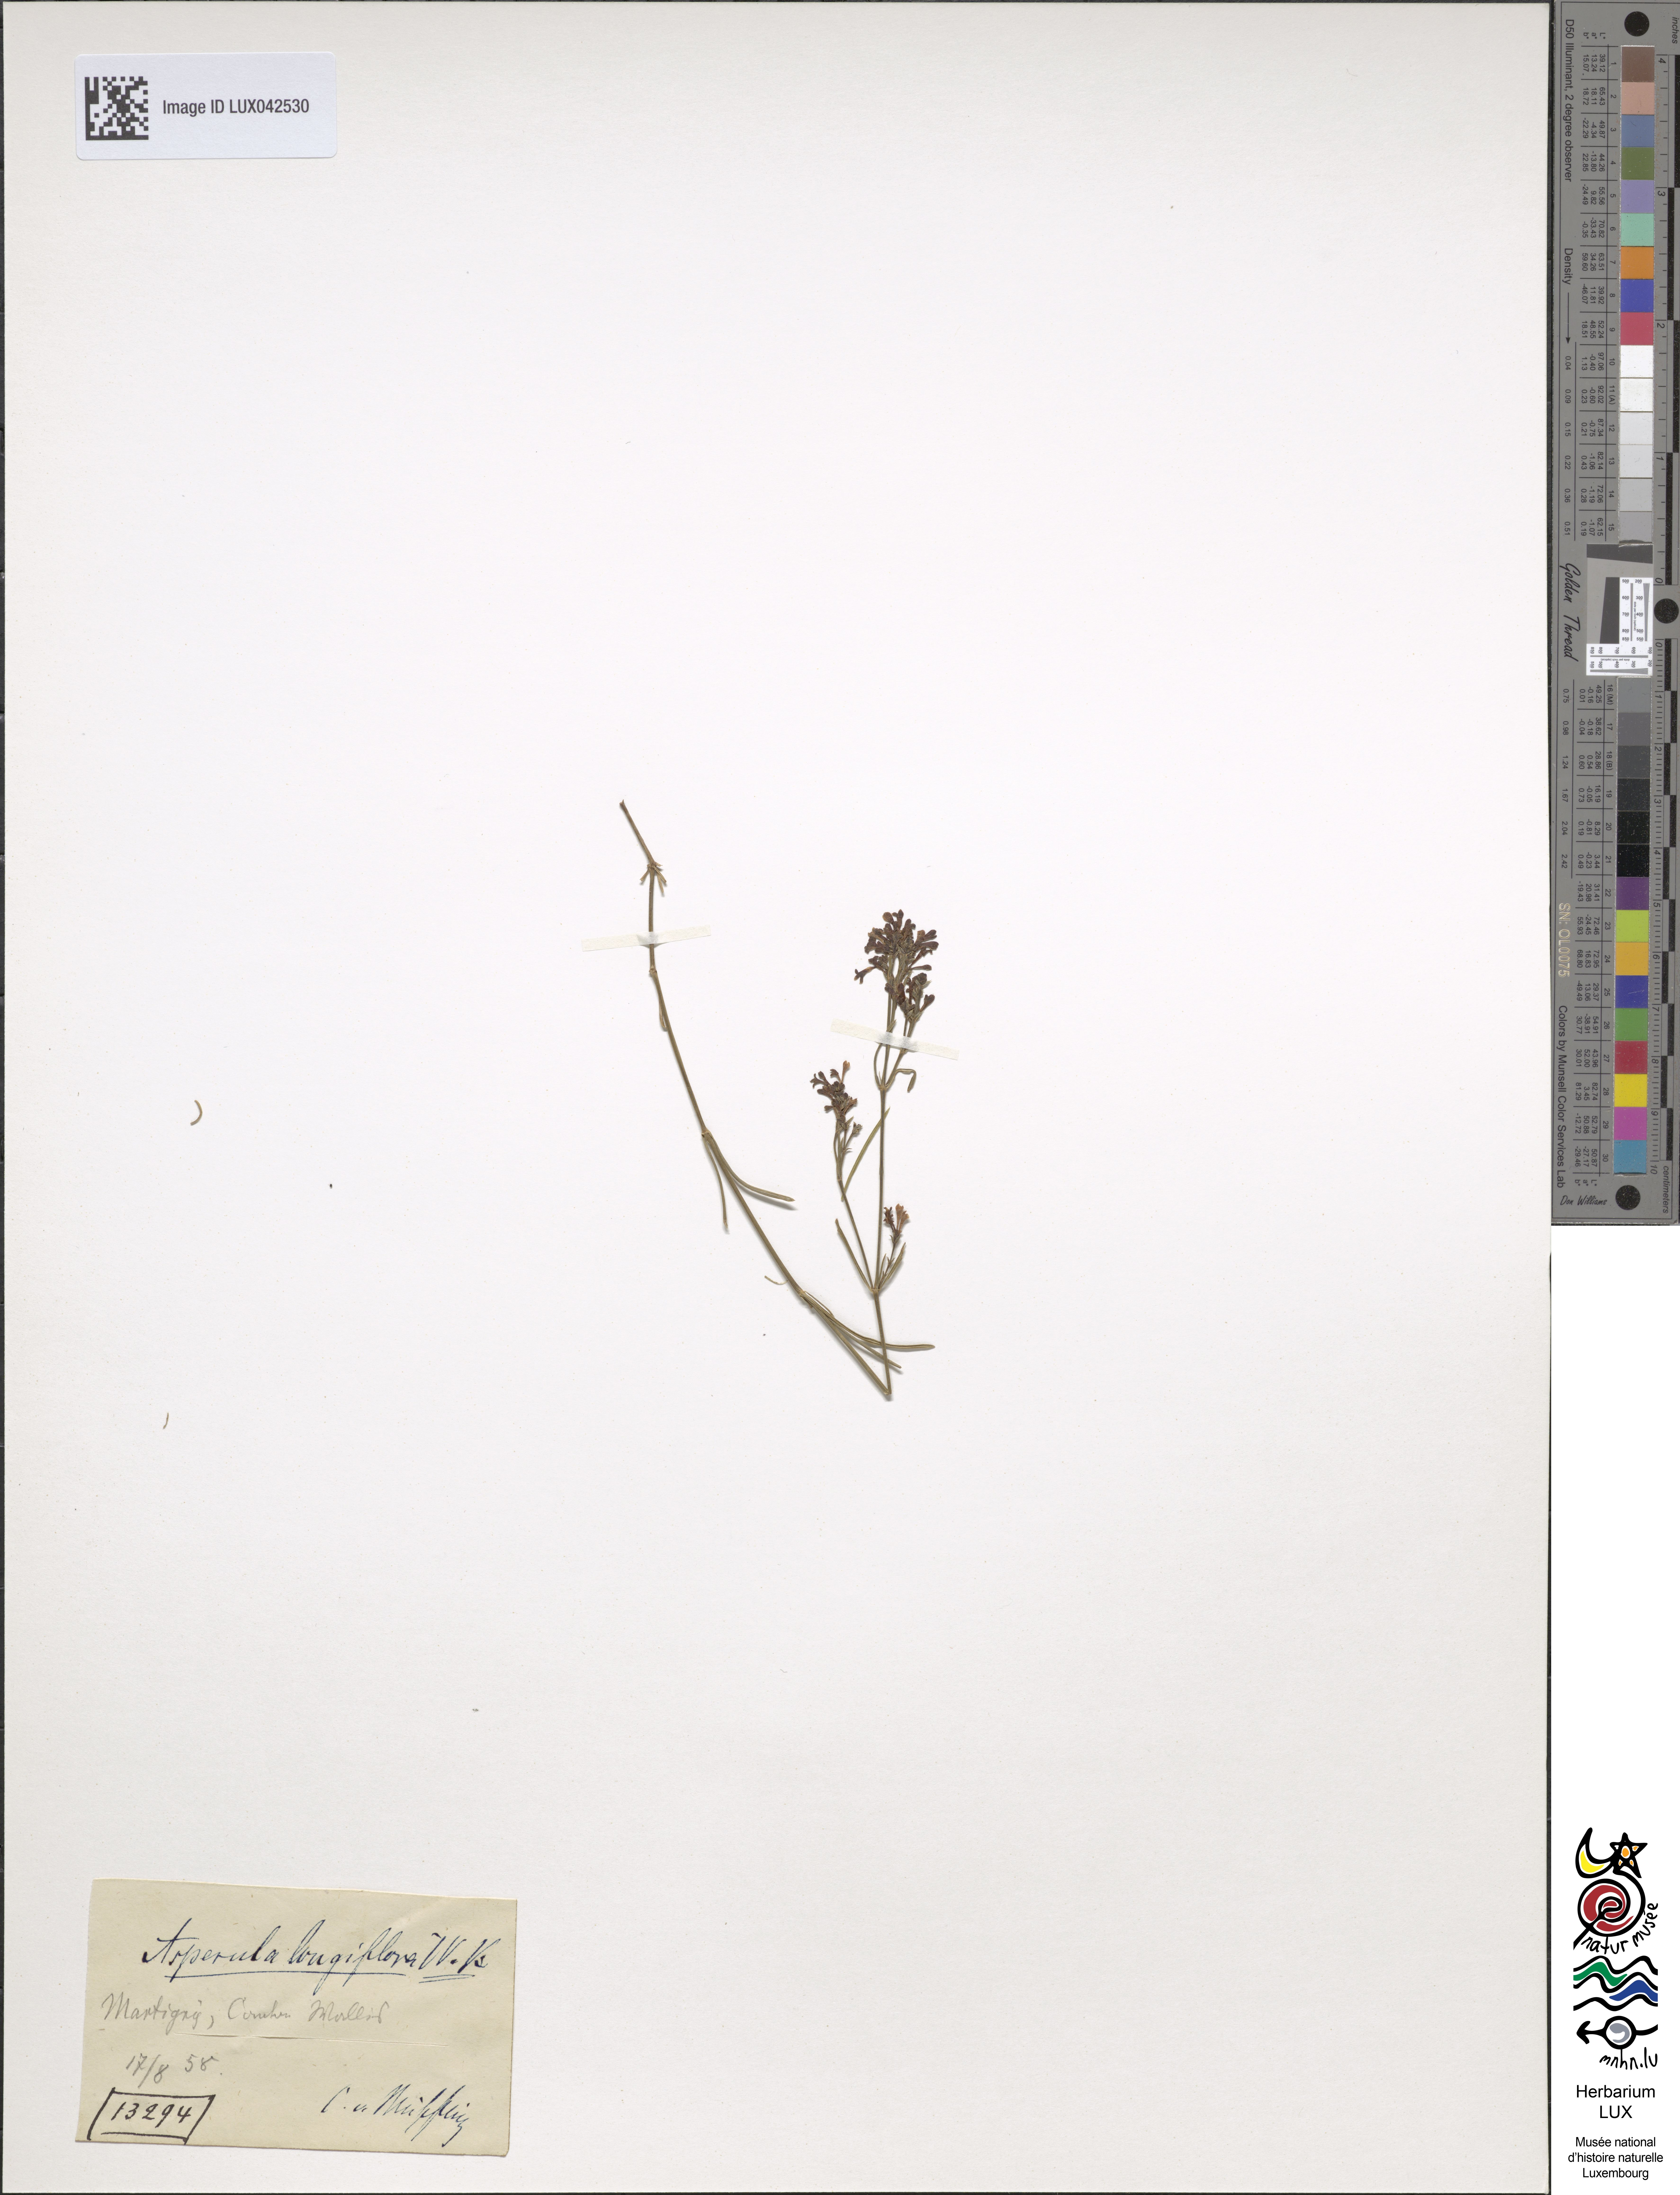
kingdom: Plantae
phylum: Tracheophyta
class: Magnoliopsida
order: Gentianales
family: Rubiaceae
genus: Cynanchica
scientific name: Cynanchica aristata
